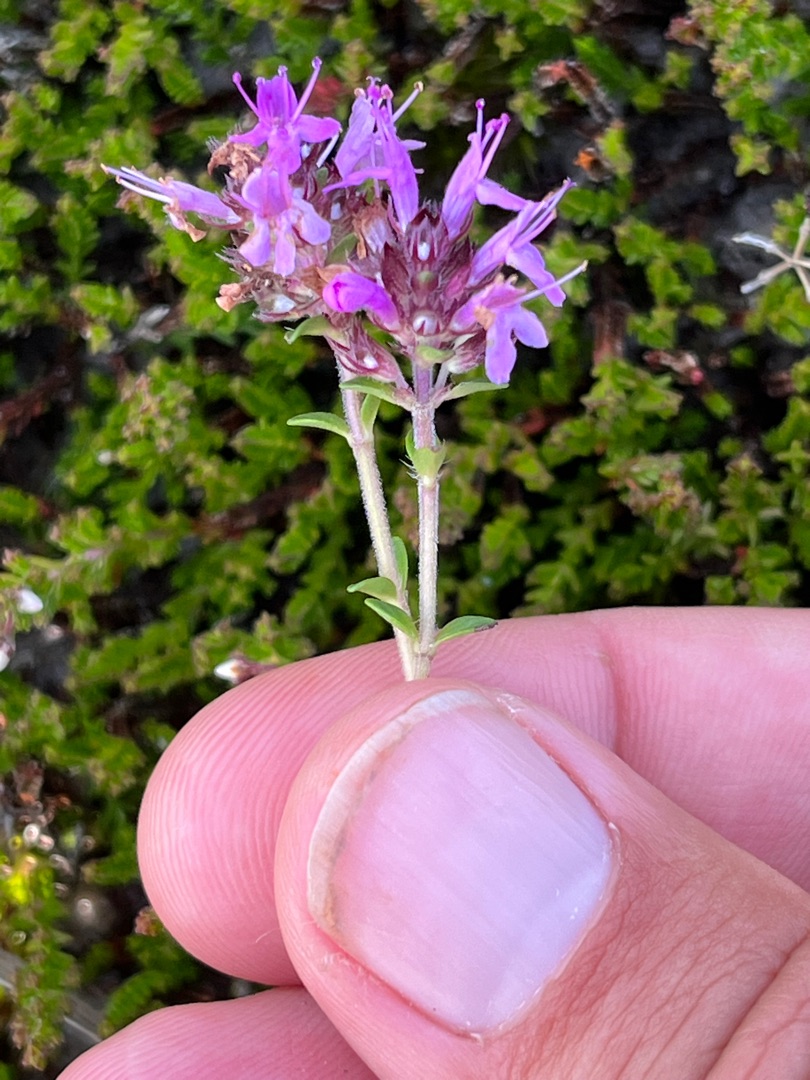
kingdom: Plantae
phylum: Tracheophyta
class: Magnoliopsida
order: Lamiales
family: Lamiaceae
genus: Thymus
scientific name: Thymus serpyllum
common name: Smalbladet timian
